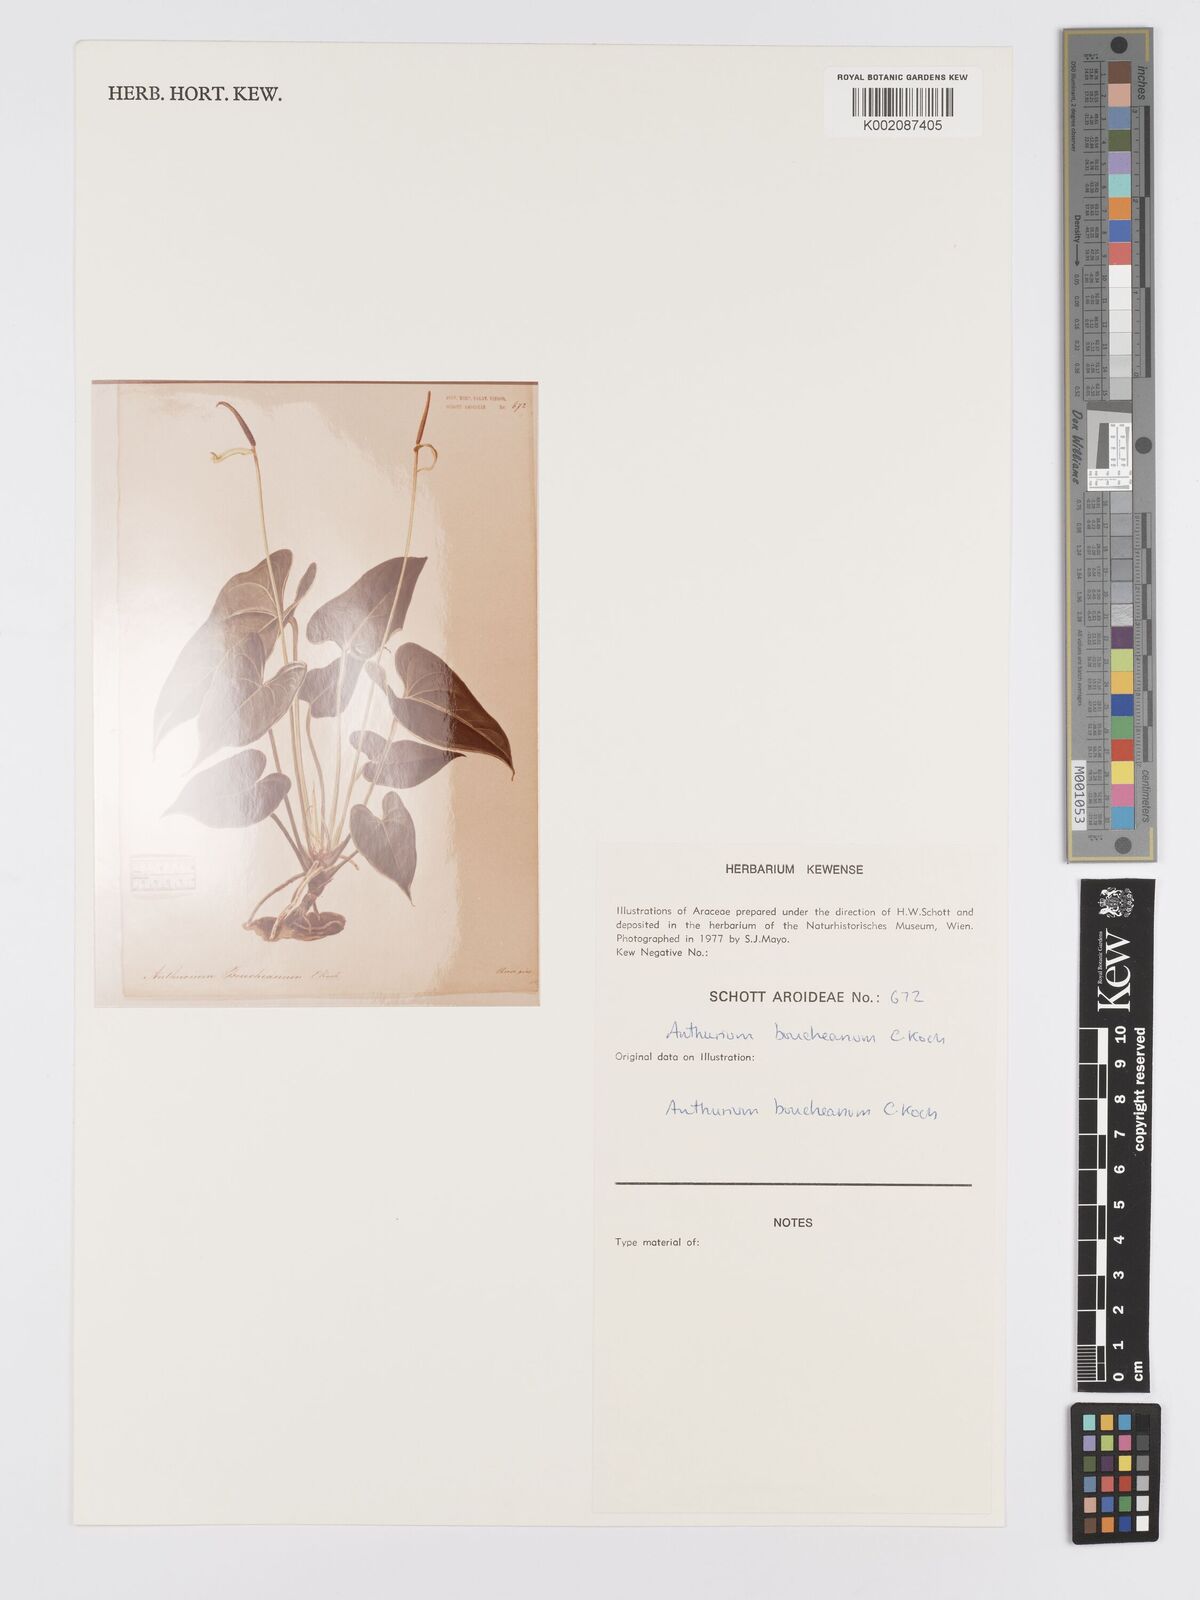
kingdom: Plantae
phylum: Tracheophyta
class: Liliopsida
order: Alismatales
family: Araceae
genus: Anthurium
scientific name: Anthurium cartilagineum
